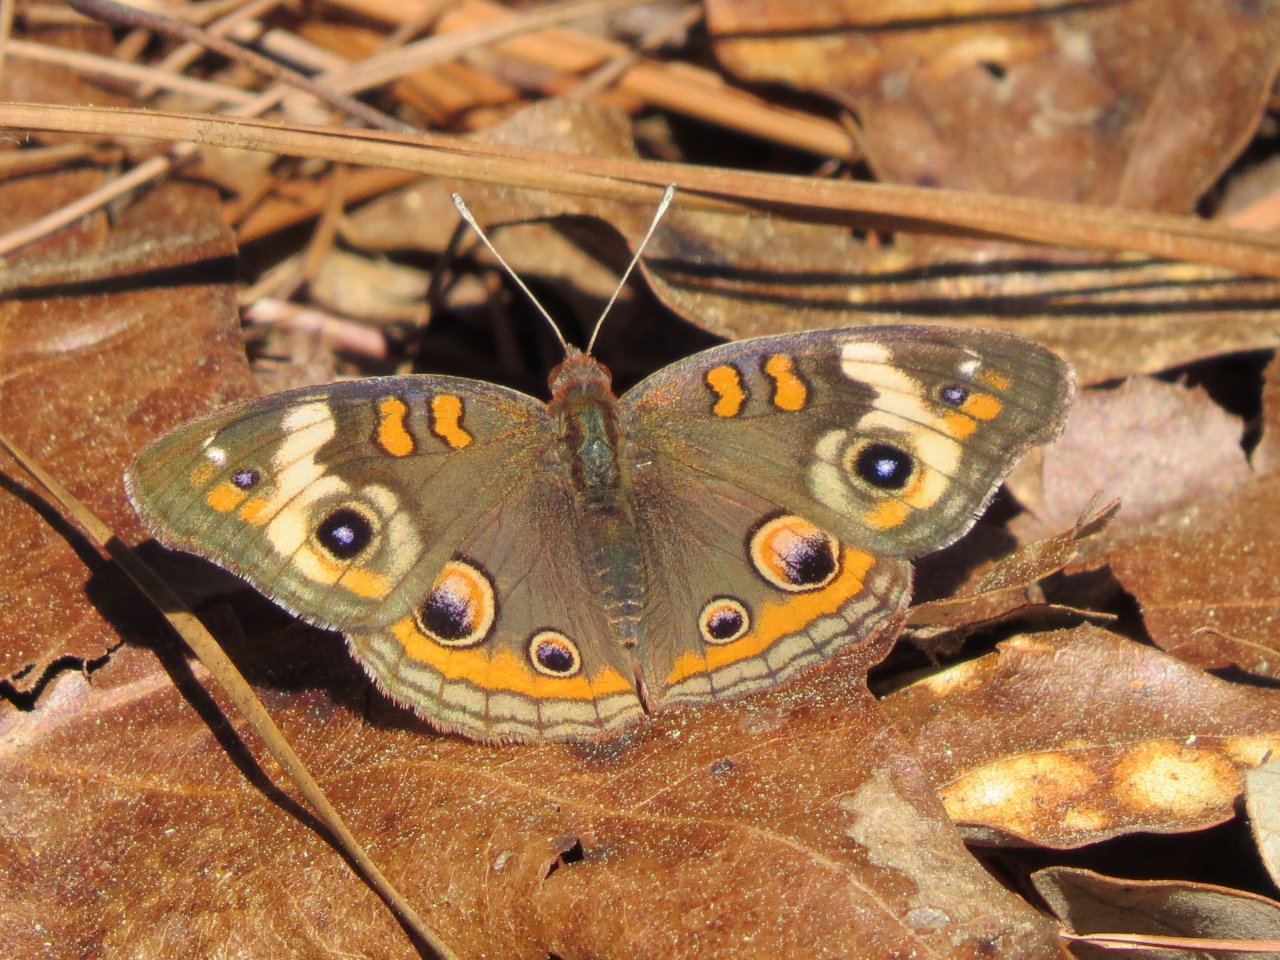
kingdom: Animalia
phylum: Arthropoda
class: Insecta
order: Lepidoptera
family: Nymphalidae
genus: Junonia
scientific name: Junonia coenia
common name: Common Buckeye
